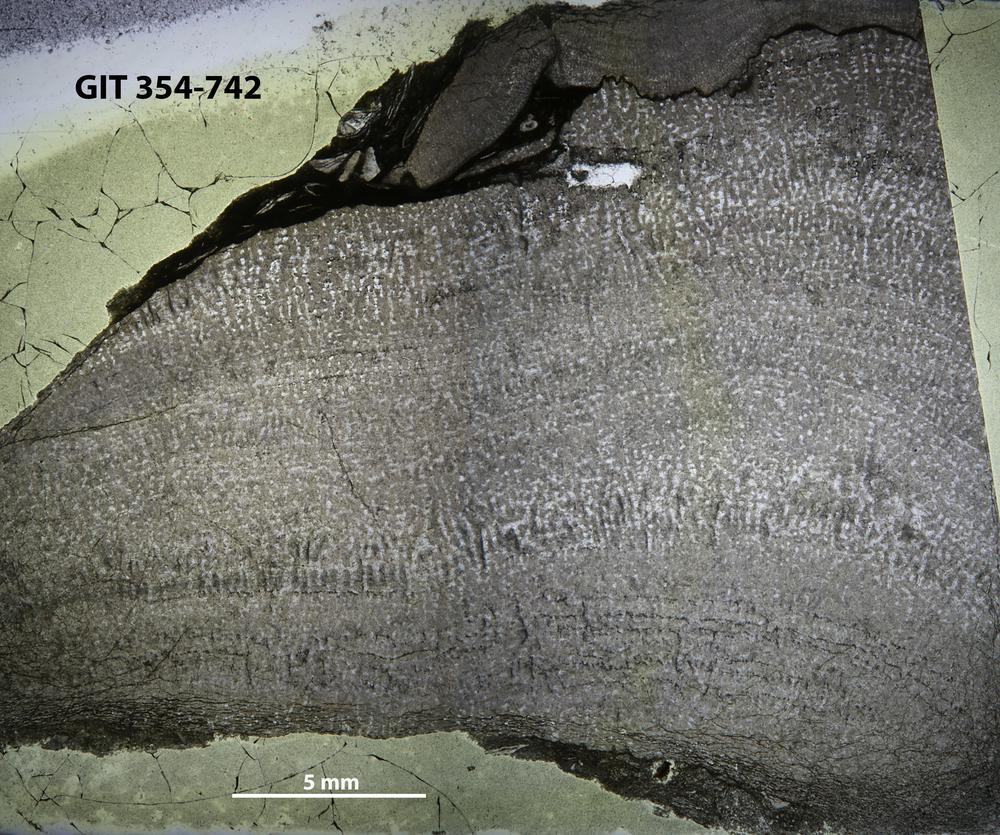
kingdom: Animalia
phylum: Porifera
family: Stromatoporidae
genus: Stromatopora
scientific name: Stromatopora
